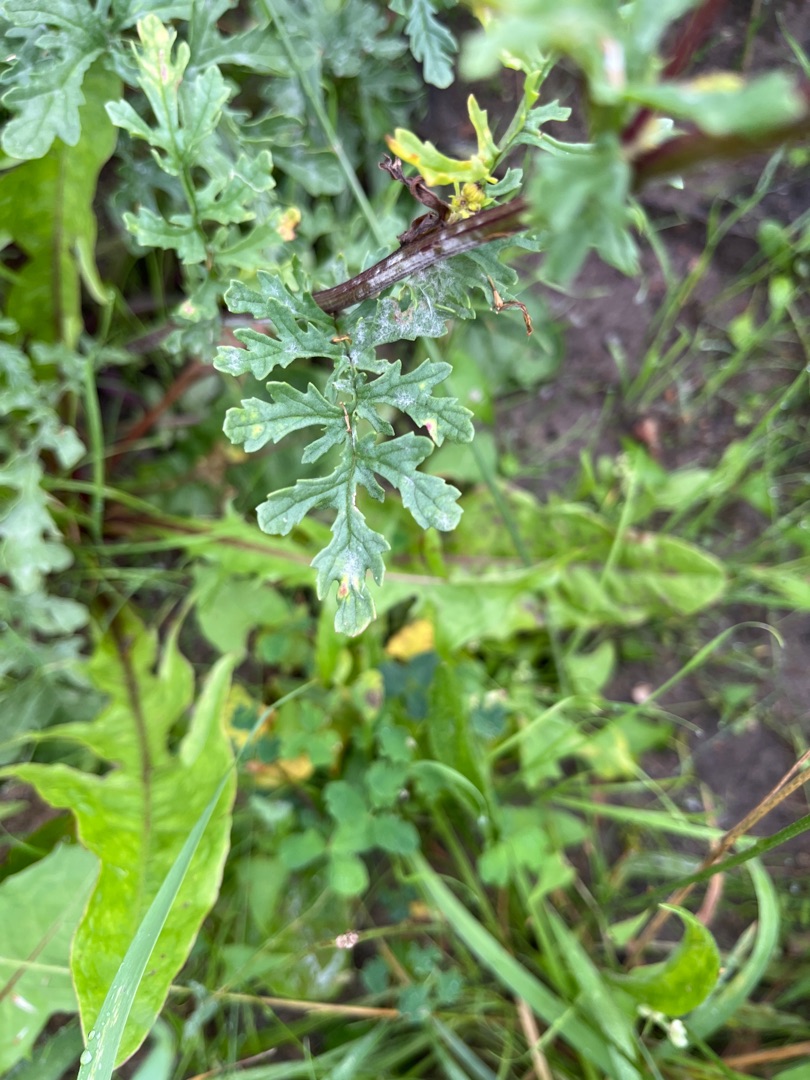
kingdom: Plantae
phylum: Tracheophyta
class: Magnoliopsida
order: Asterales
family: Asteraceae
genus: Jacobaea
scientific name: Jacobaea vulgaris
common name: Eng-brandbæger
